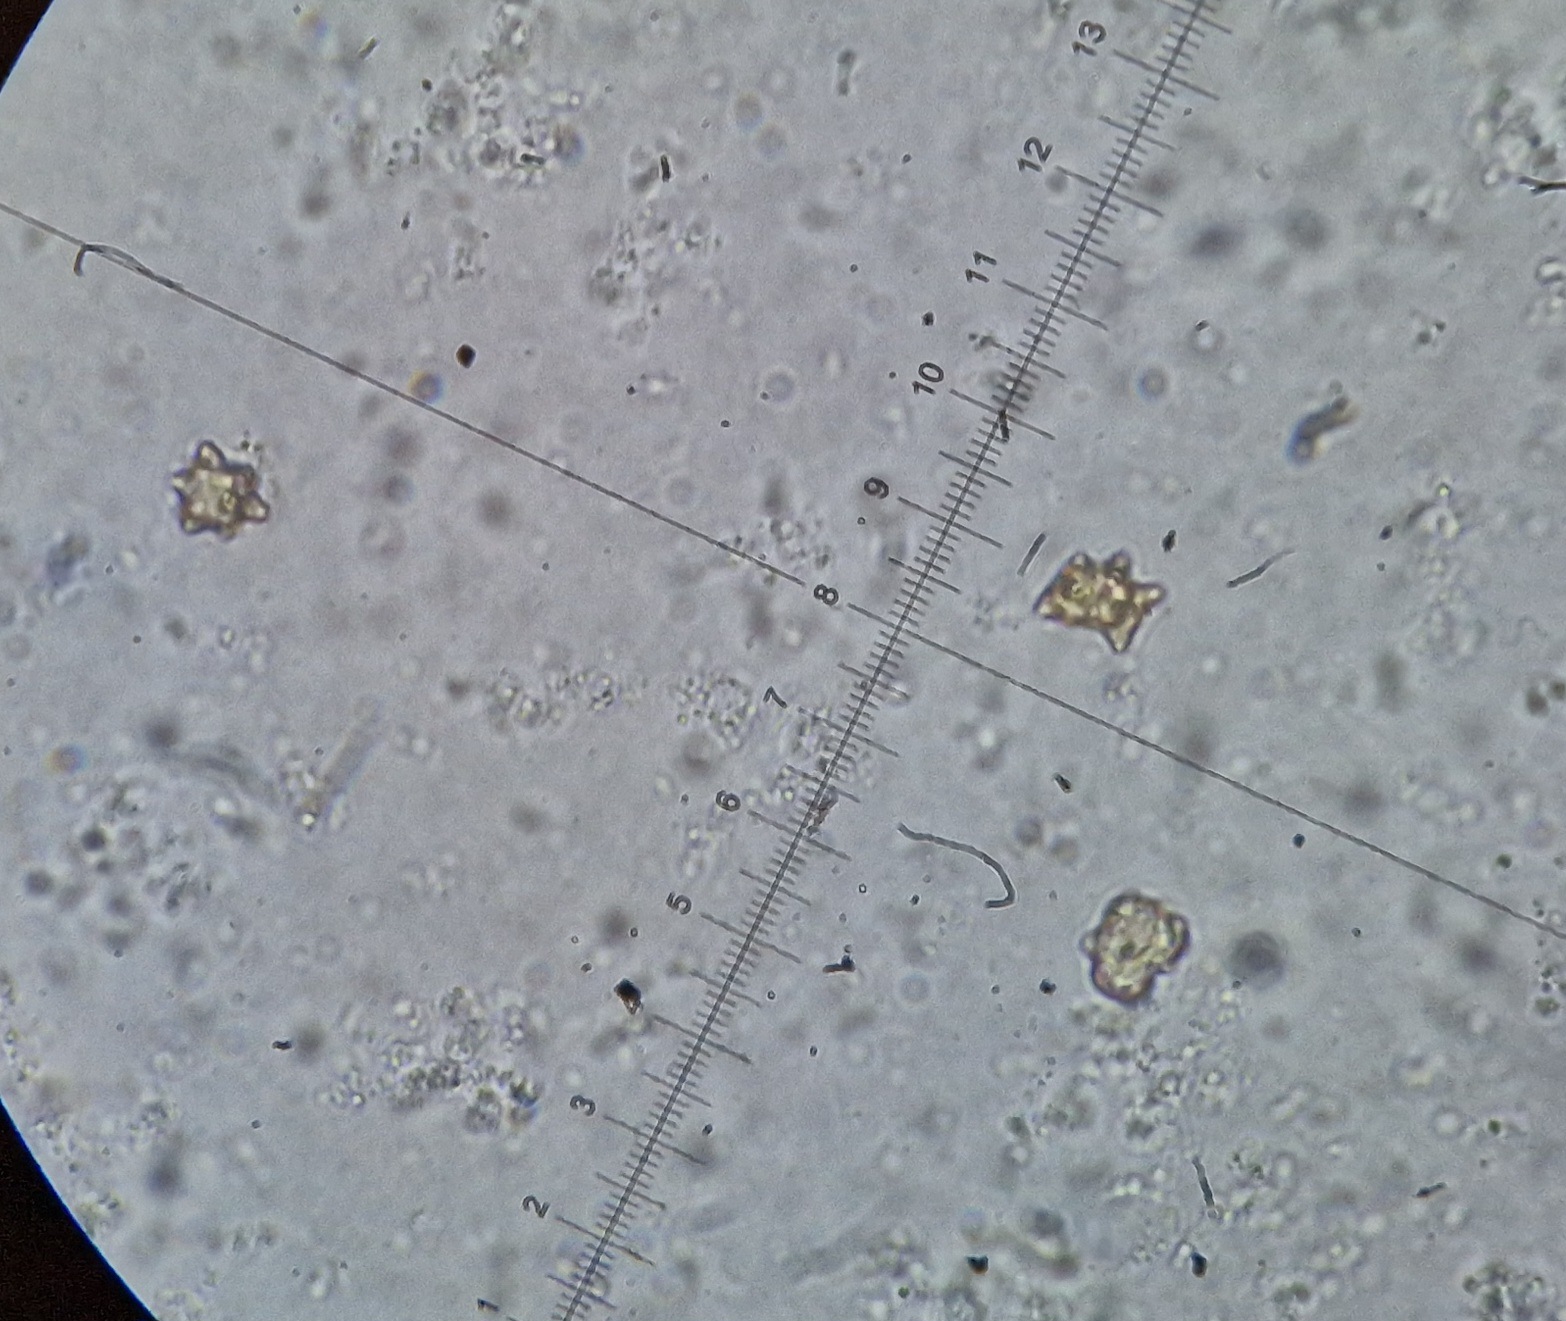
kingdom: Fungi
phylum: Basidiomycota
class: Agaricomycetes
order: Agaricales
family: Inocybaceae
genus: Inocybe
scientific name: Inocybe
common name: trævlhat
